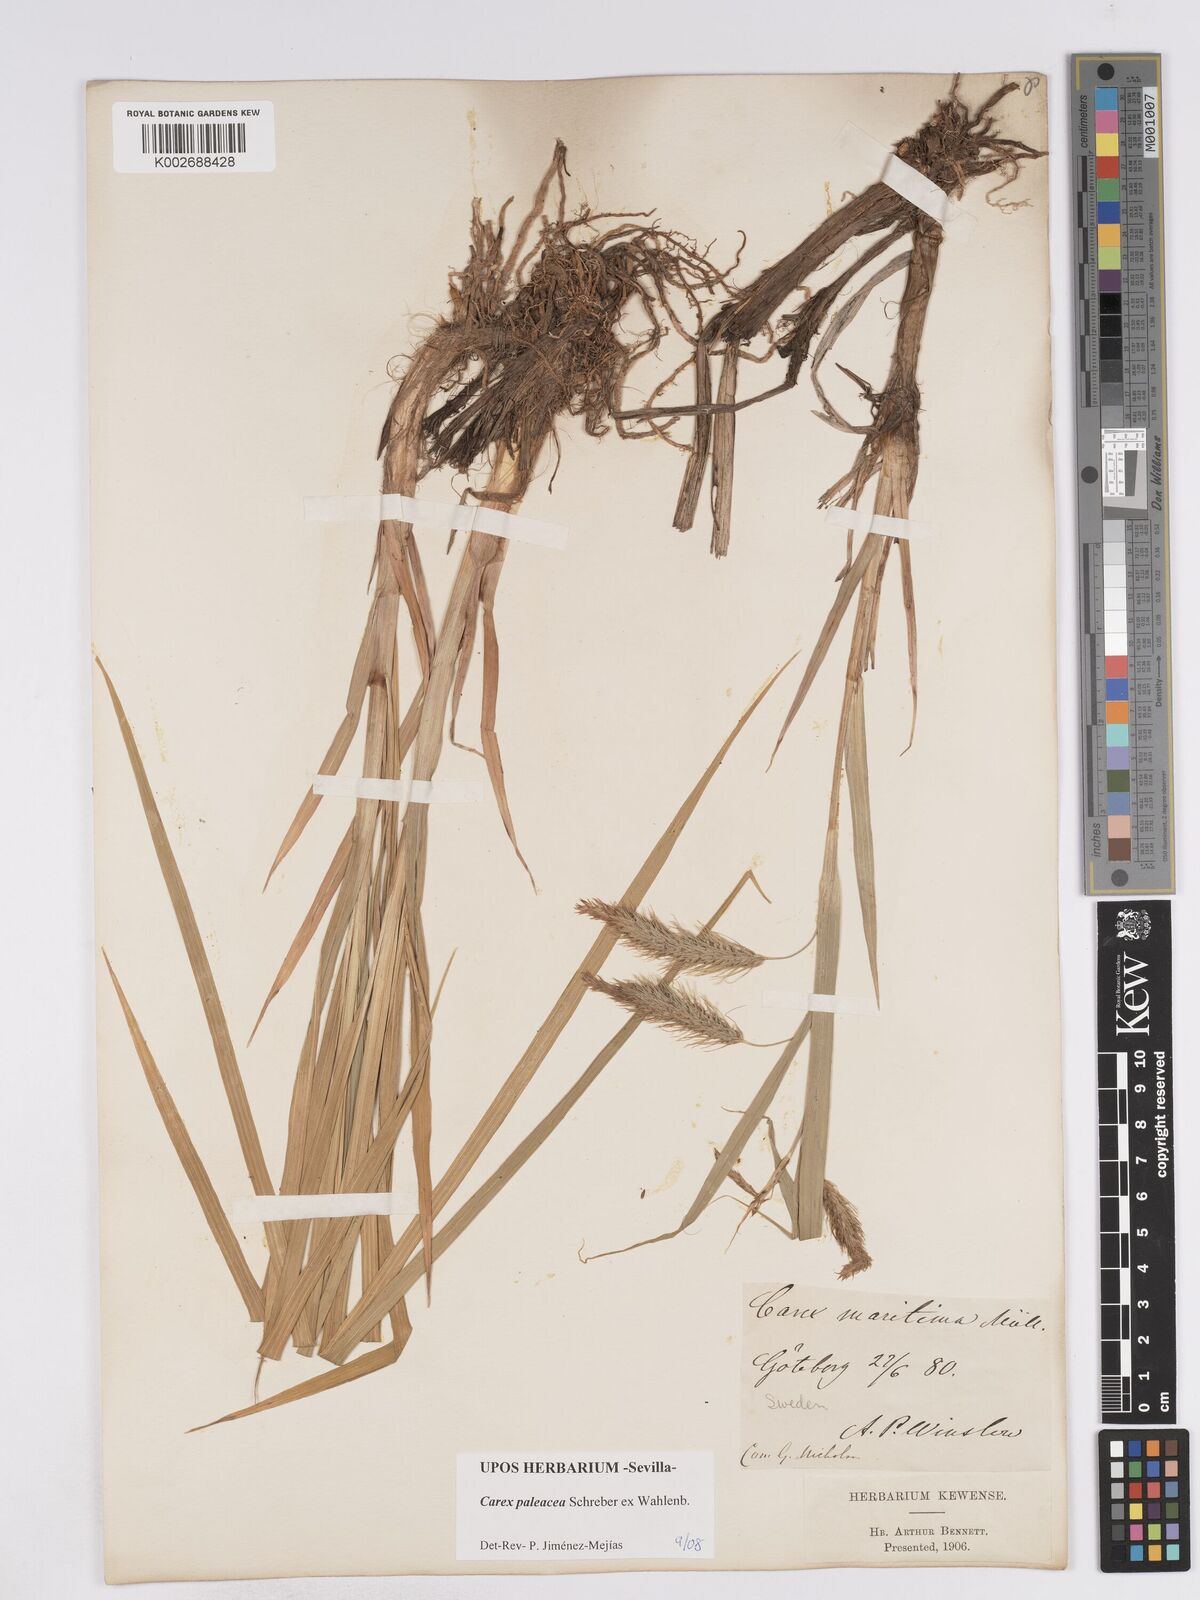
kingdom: Plantae
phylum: Tracheophyta
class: Liliopsida
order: Poales
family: Cyperaceae
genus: Carex
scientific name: Carex paleacea
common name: Chaffy sedge
